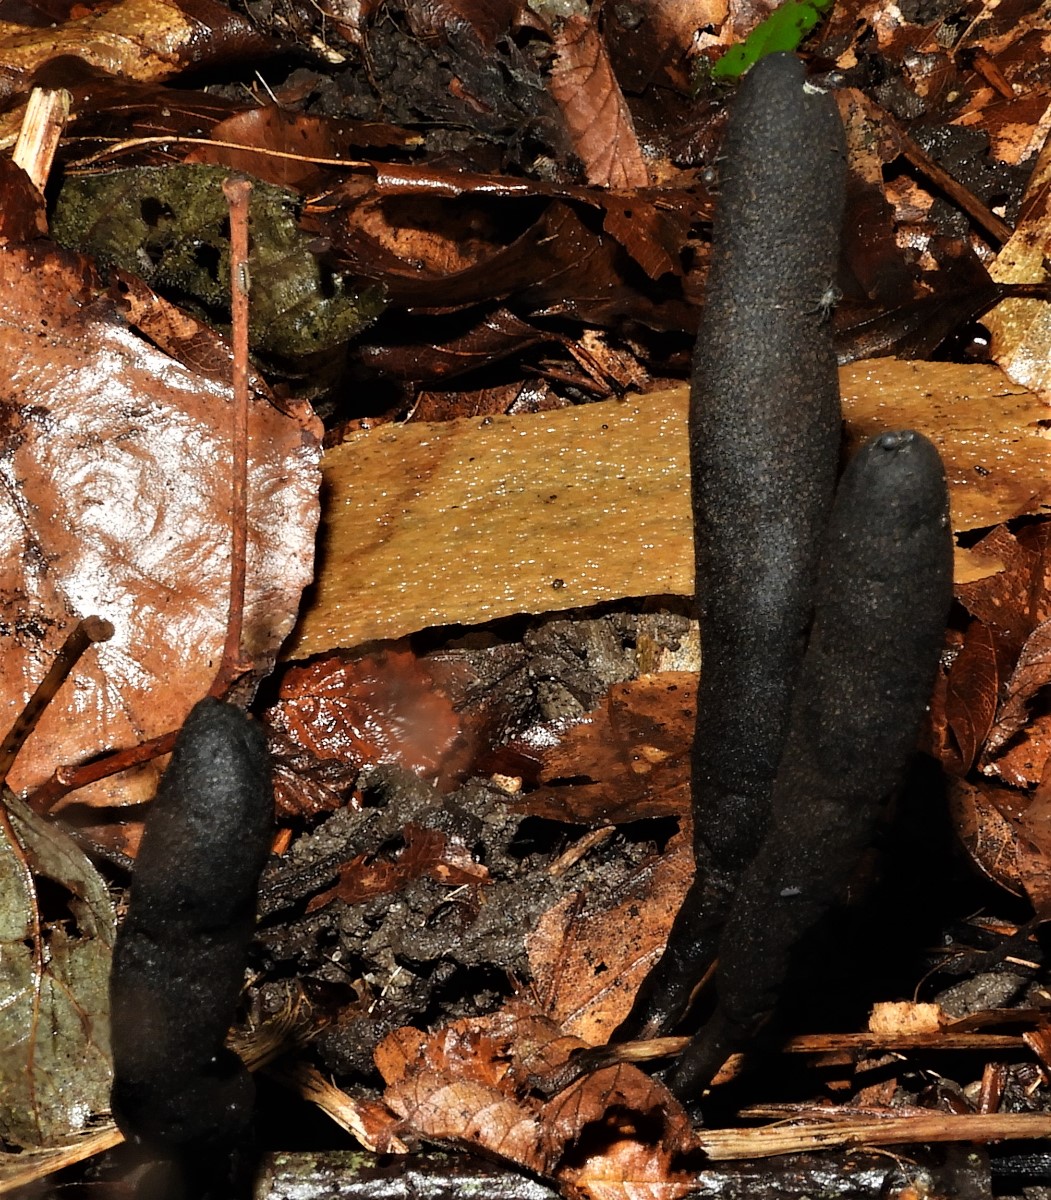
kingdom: Fungi
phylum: Ascomycota
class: Sordariomycetes
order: Xylariales
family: Xylariaceae
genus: Xylaria
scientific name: Xylaria longipes
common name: slank stødsvamp
